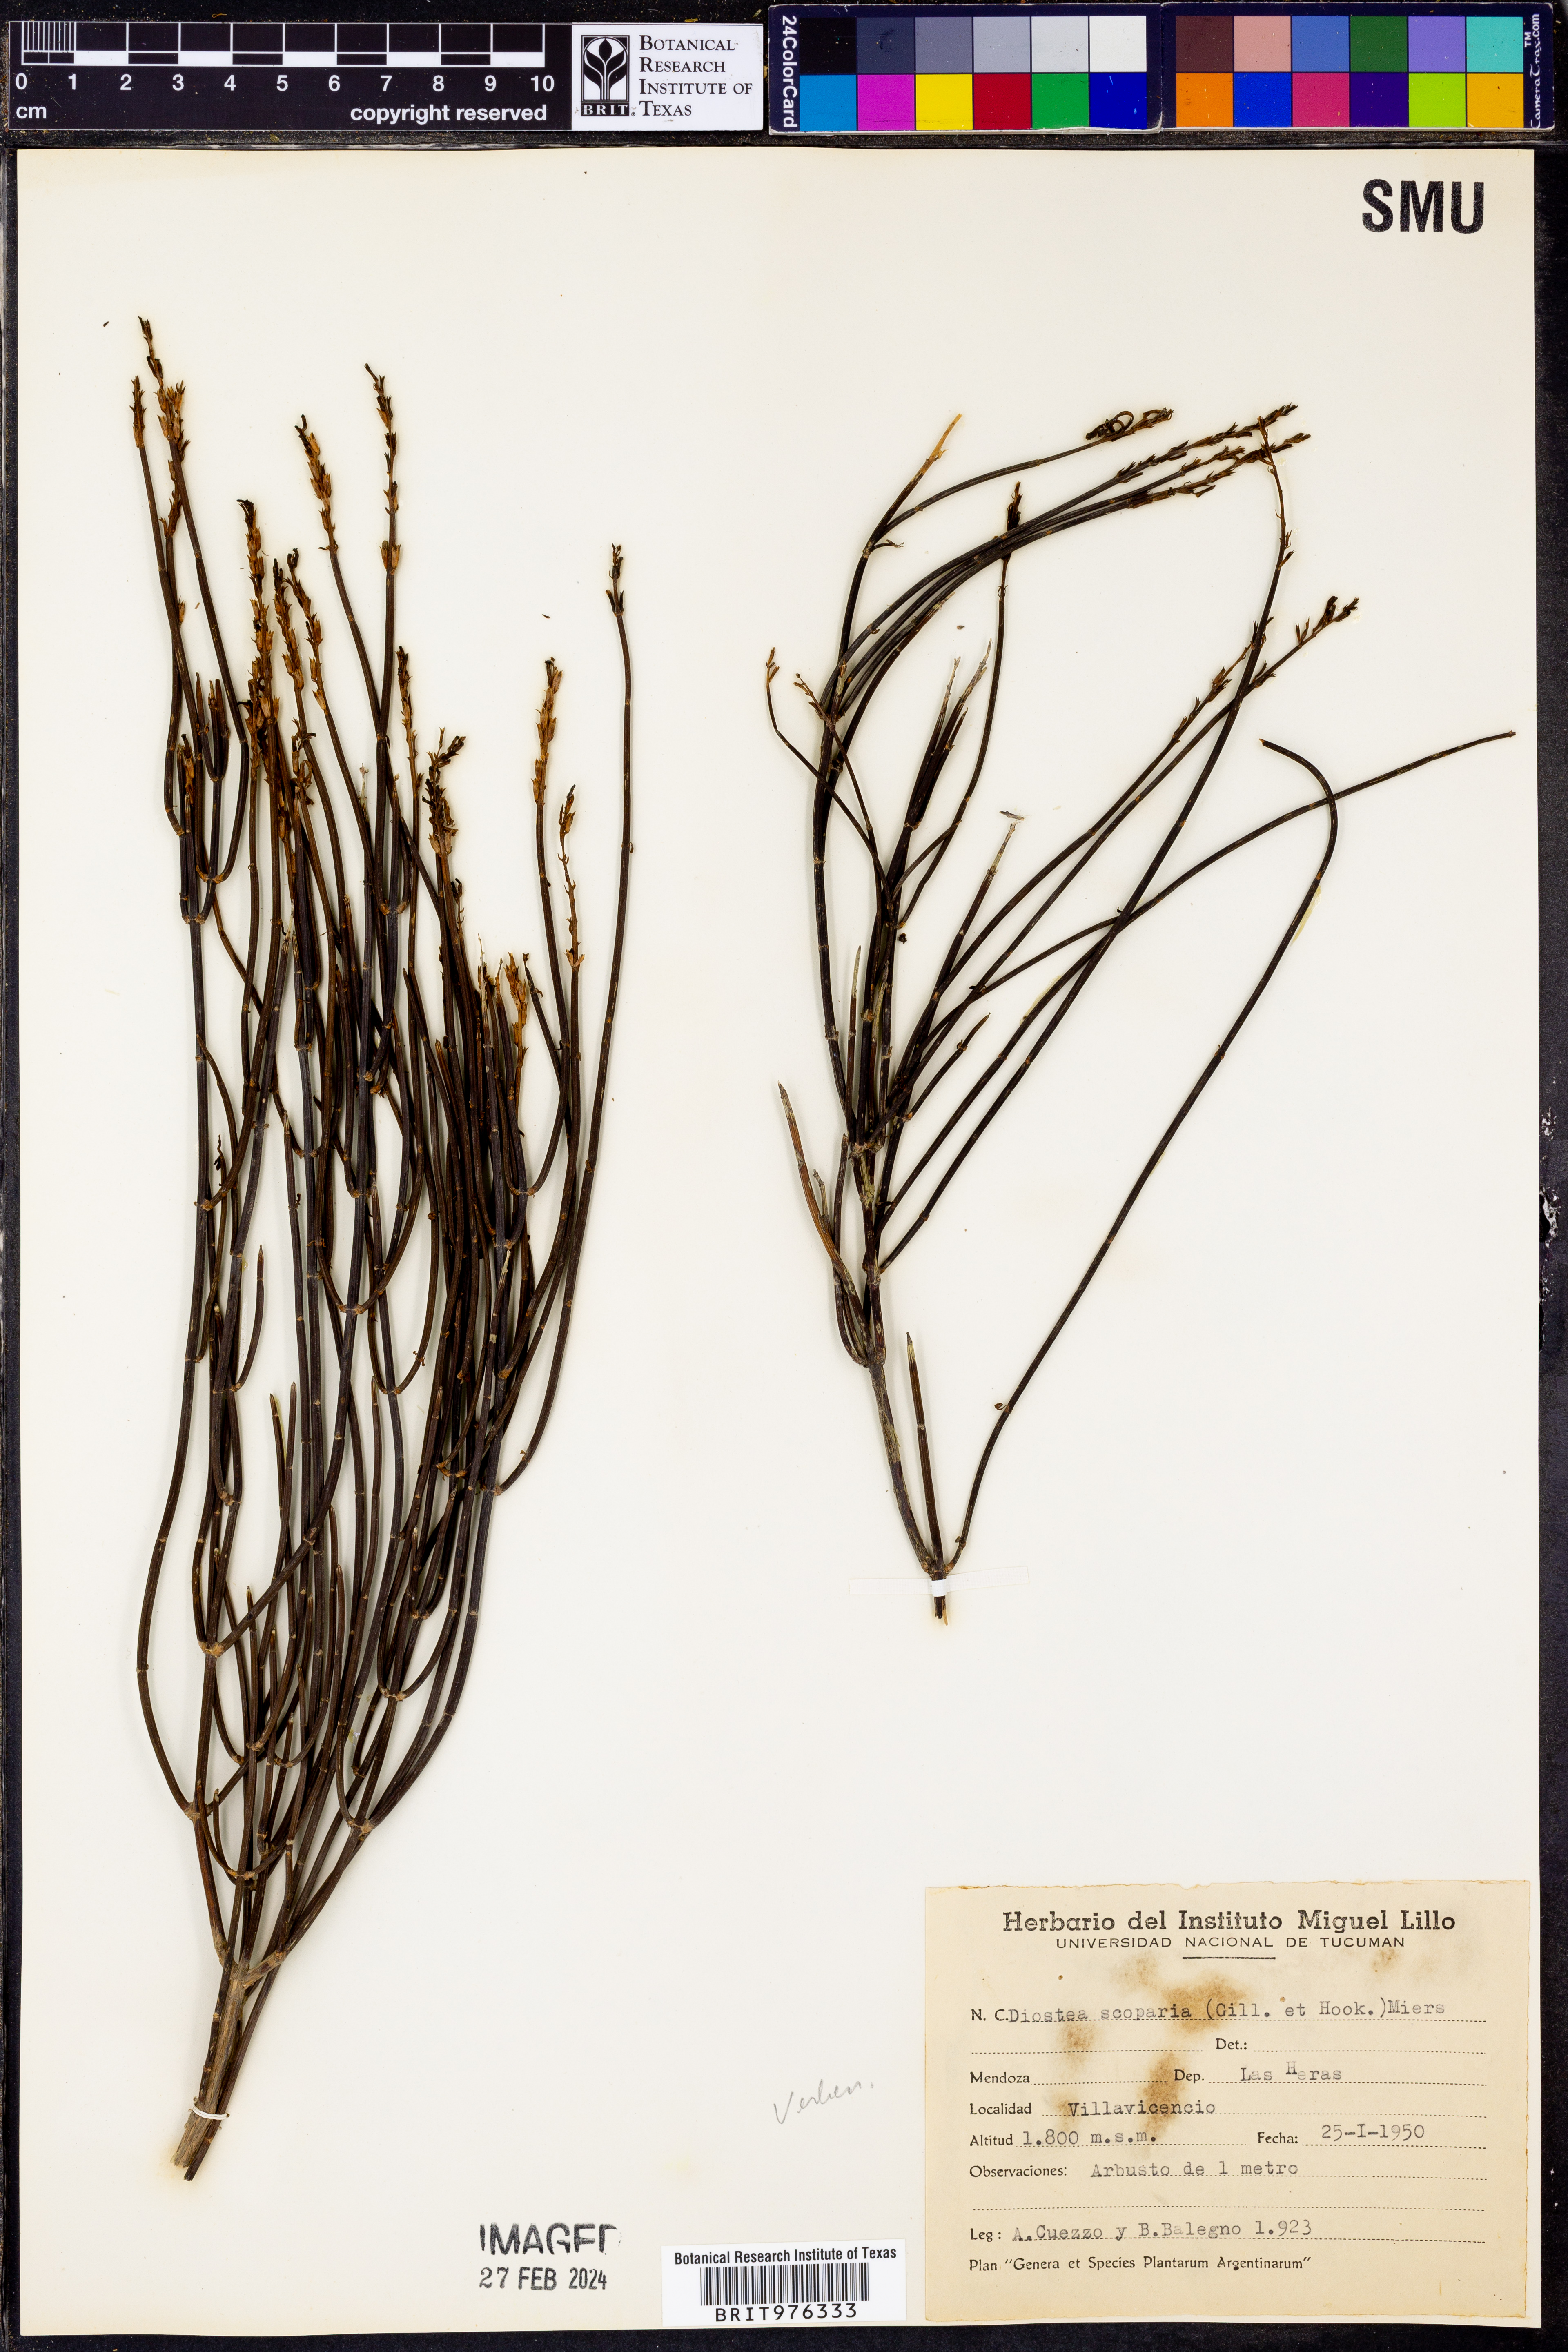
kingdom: Plantae
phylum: Tracheophyta
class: Magnoliopsida
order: Lamiales
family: Verbenaceae
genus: Diostea
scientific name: Diostea
